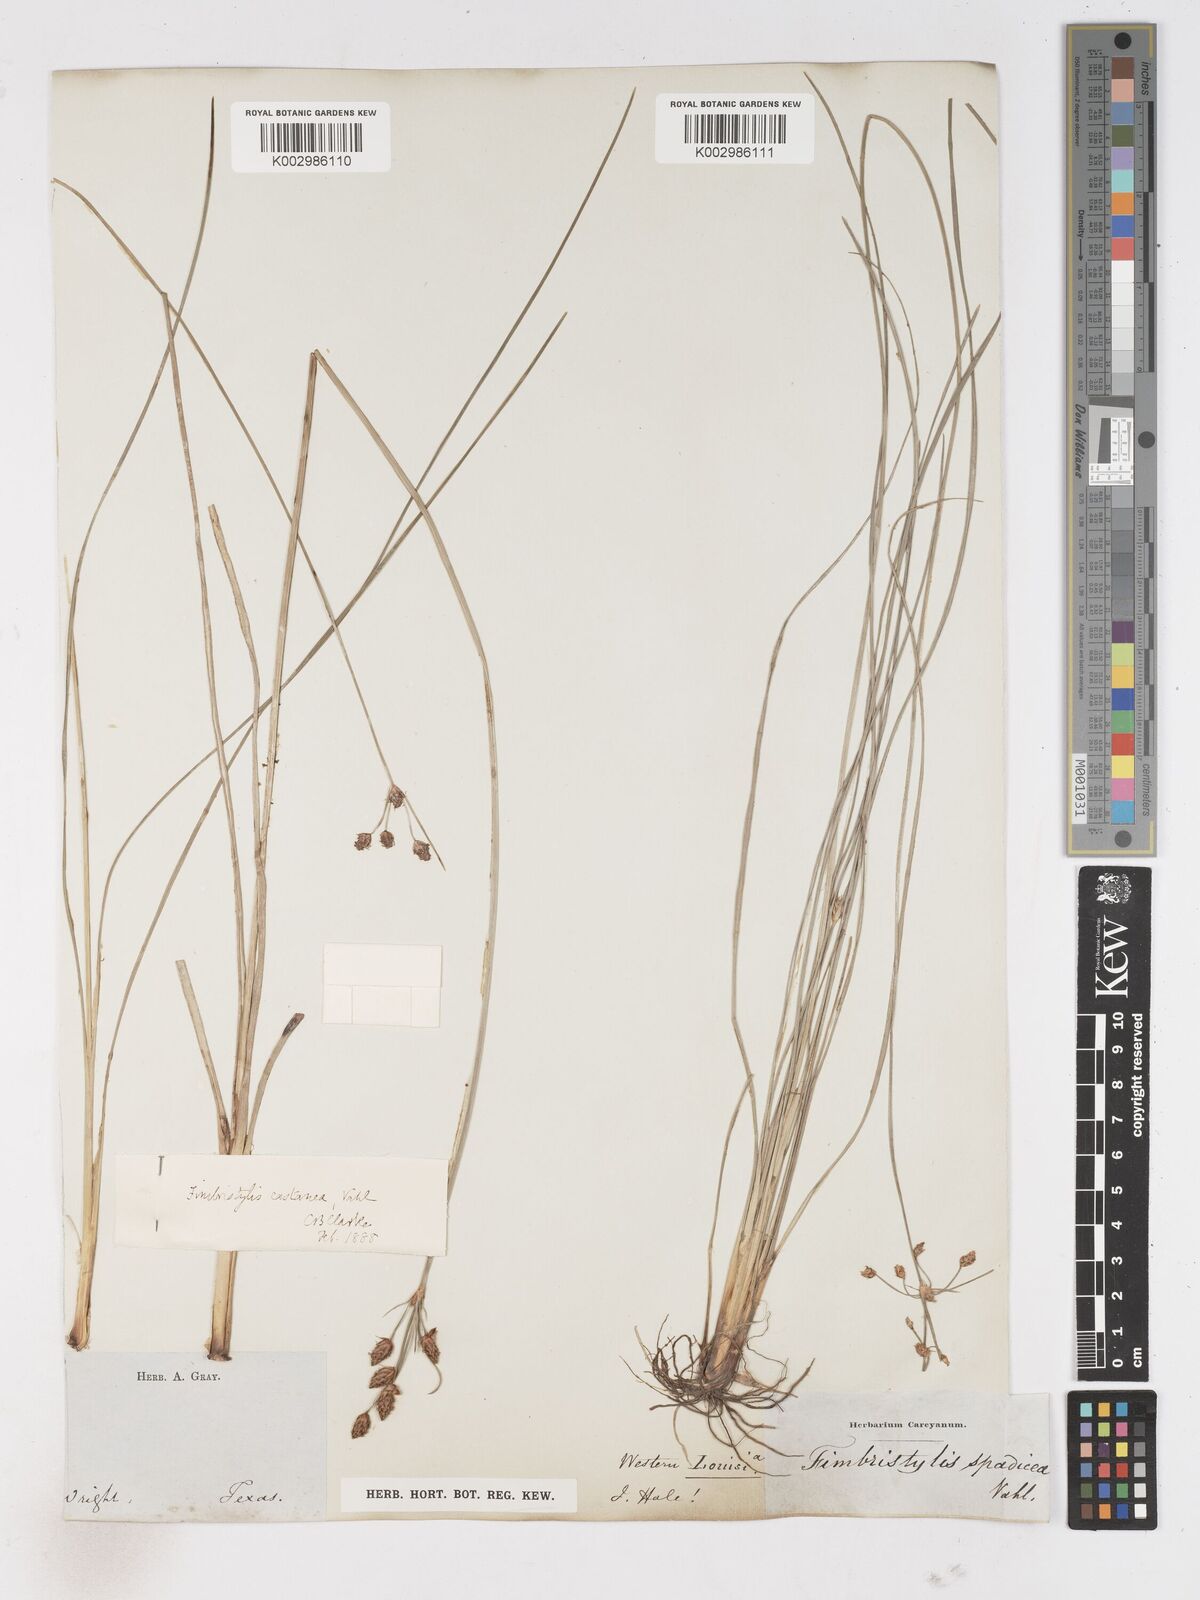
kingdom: Plantae
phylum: Tracheophyta
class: Liliopsida
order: Poales
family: Cyperaceae
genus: Fimbristylis
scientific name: Fimbristylis spadicea
